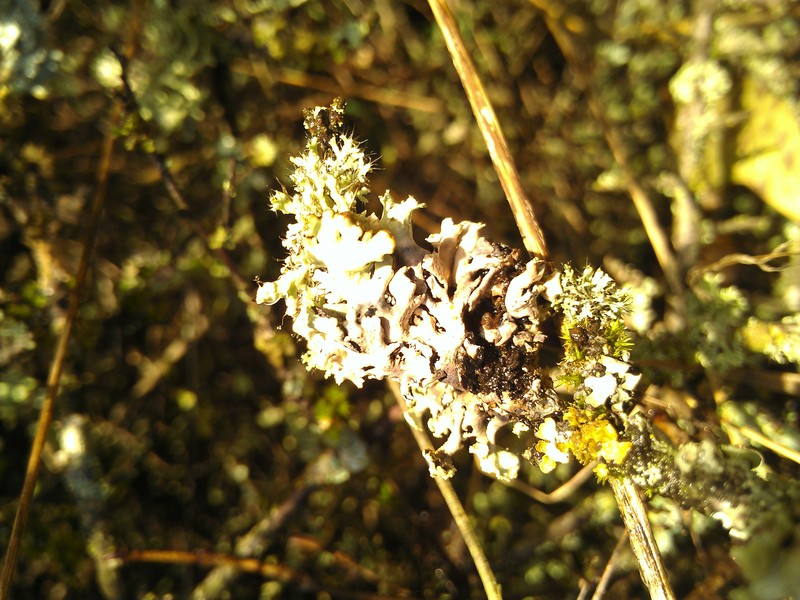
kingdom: Fungi
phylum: Ascomycota
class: Sordariomycetes
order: Hypocreales
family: Bionectriaceae
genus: Pronectria
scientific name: Pronectria anisospora
